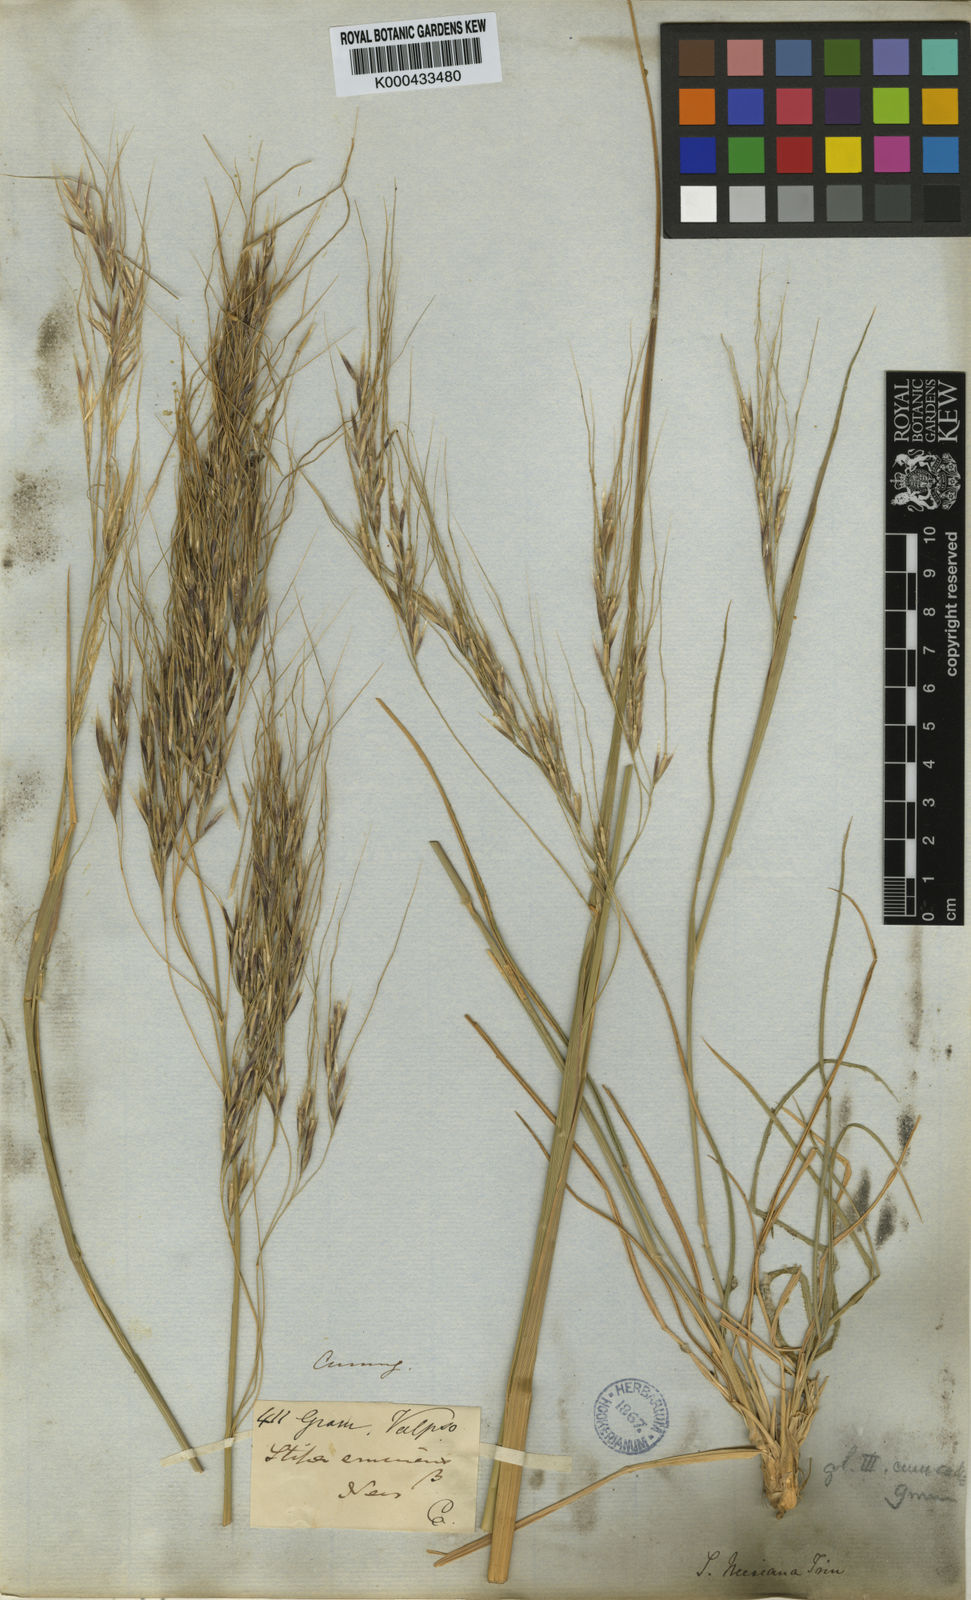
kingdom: Plantae
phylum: Tracheophyta
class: Liliopsida
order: Poales
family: Poaceae
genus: Nassella
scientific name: Nassella neesiana
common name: American needle-grass
